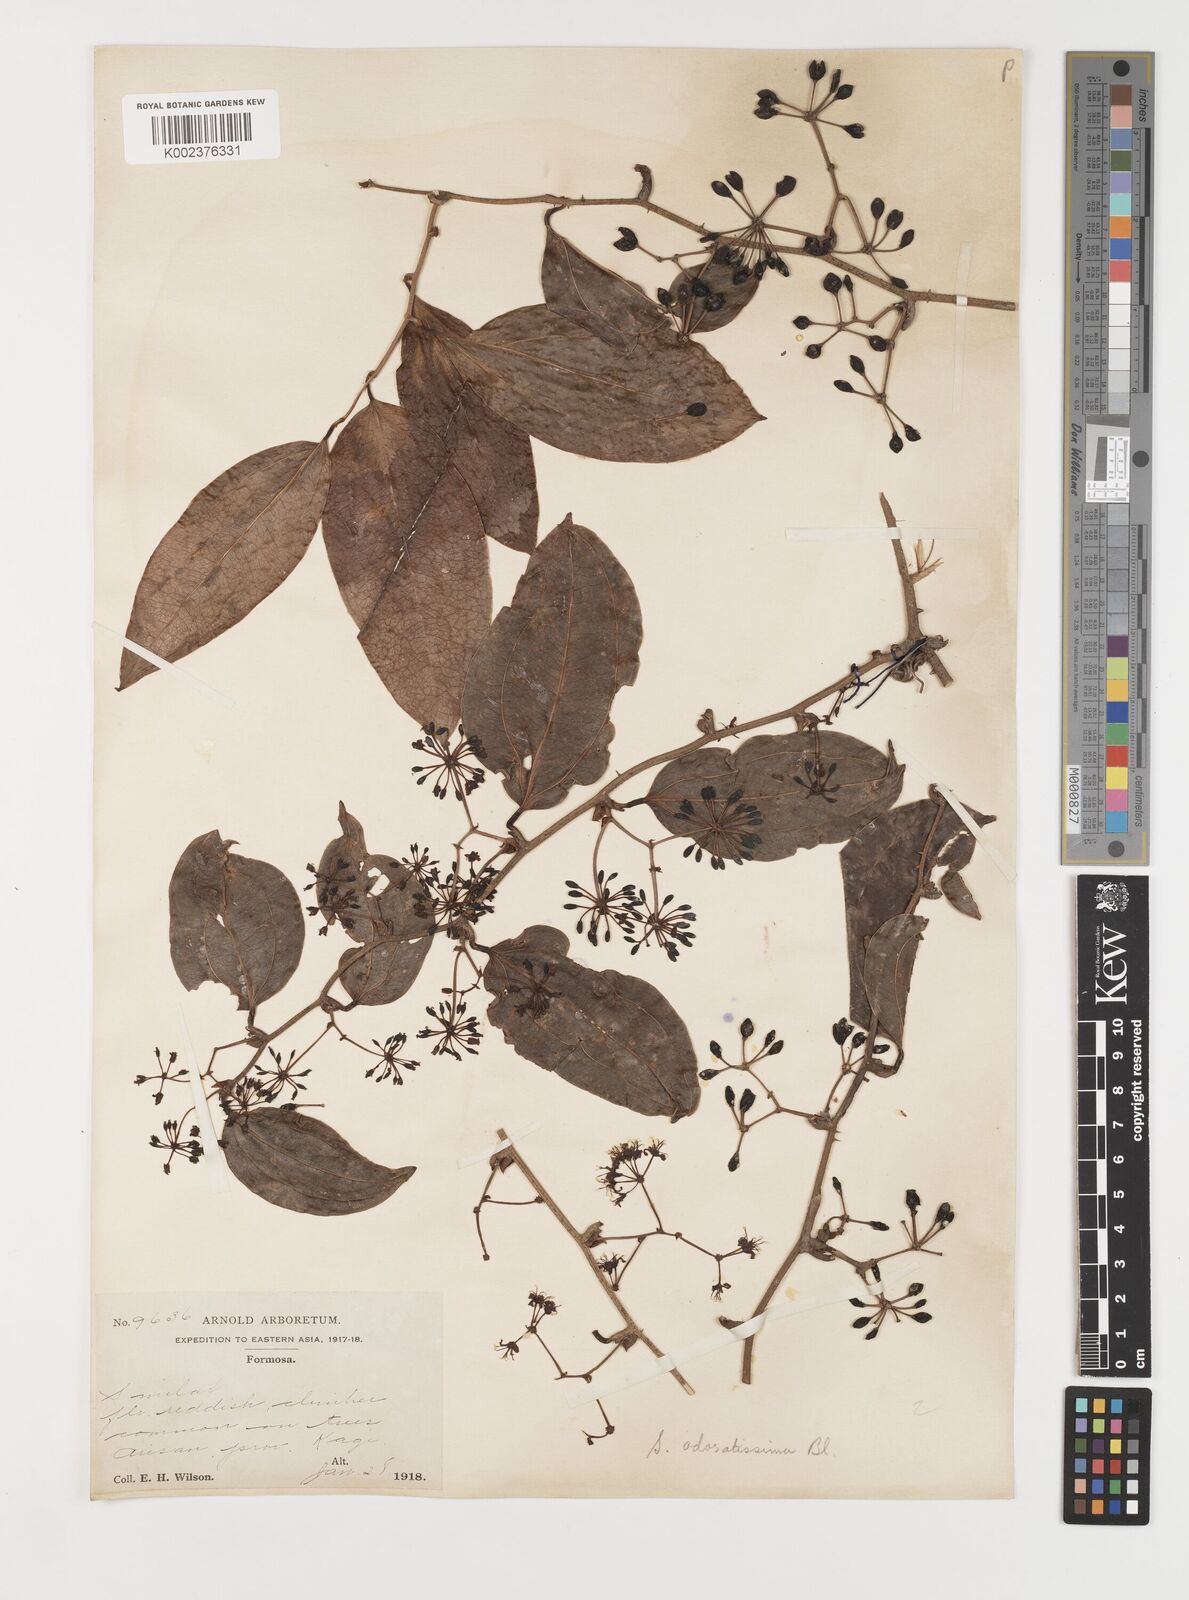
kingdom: Plantae
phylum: Tracheophyta
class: Liliopsida
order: Liliales
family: Smilacaceae
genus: Smilax
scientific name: Smilax odoratissima
